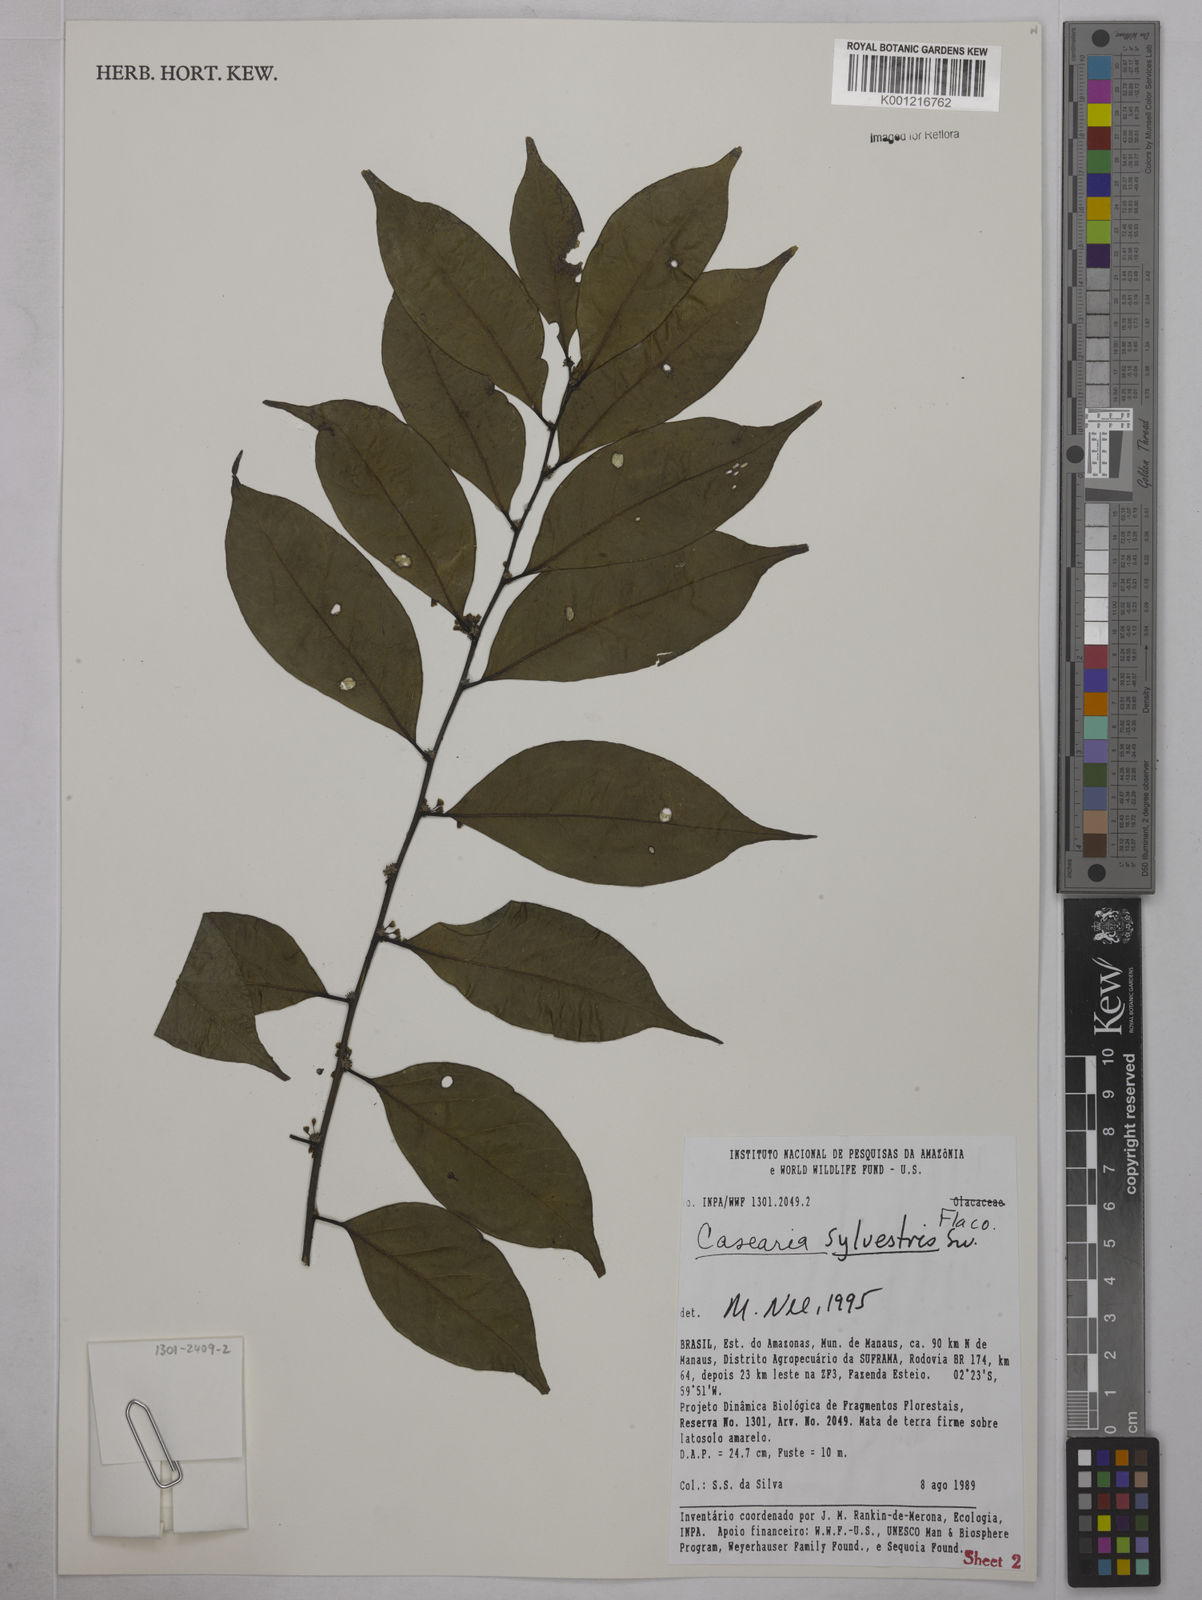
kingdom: Plantae
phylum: Tracheophyta
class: Magnoliopsida
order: Malpighiales
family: Salicaceae
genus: Casearia
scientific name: Casearia sylvestris
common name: Wild sage
